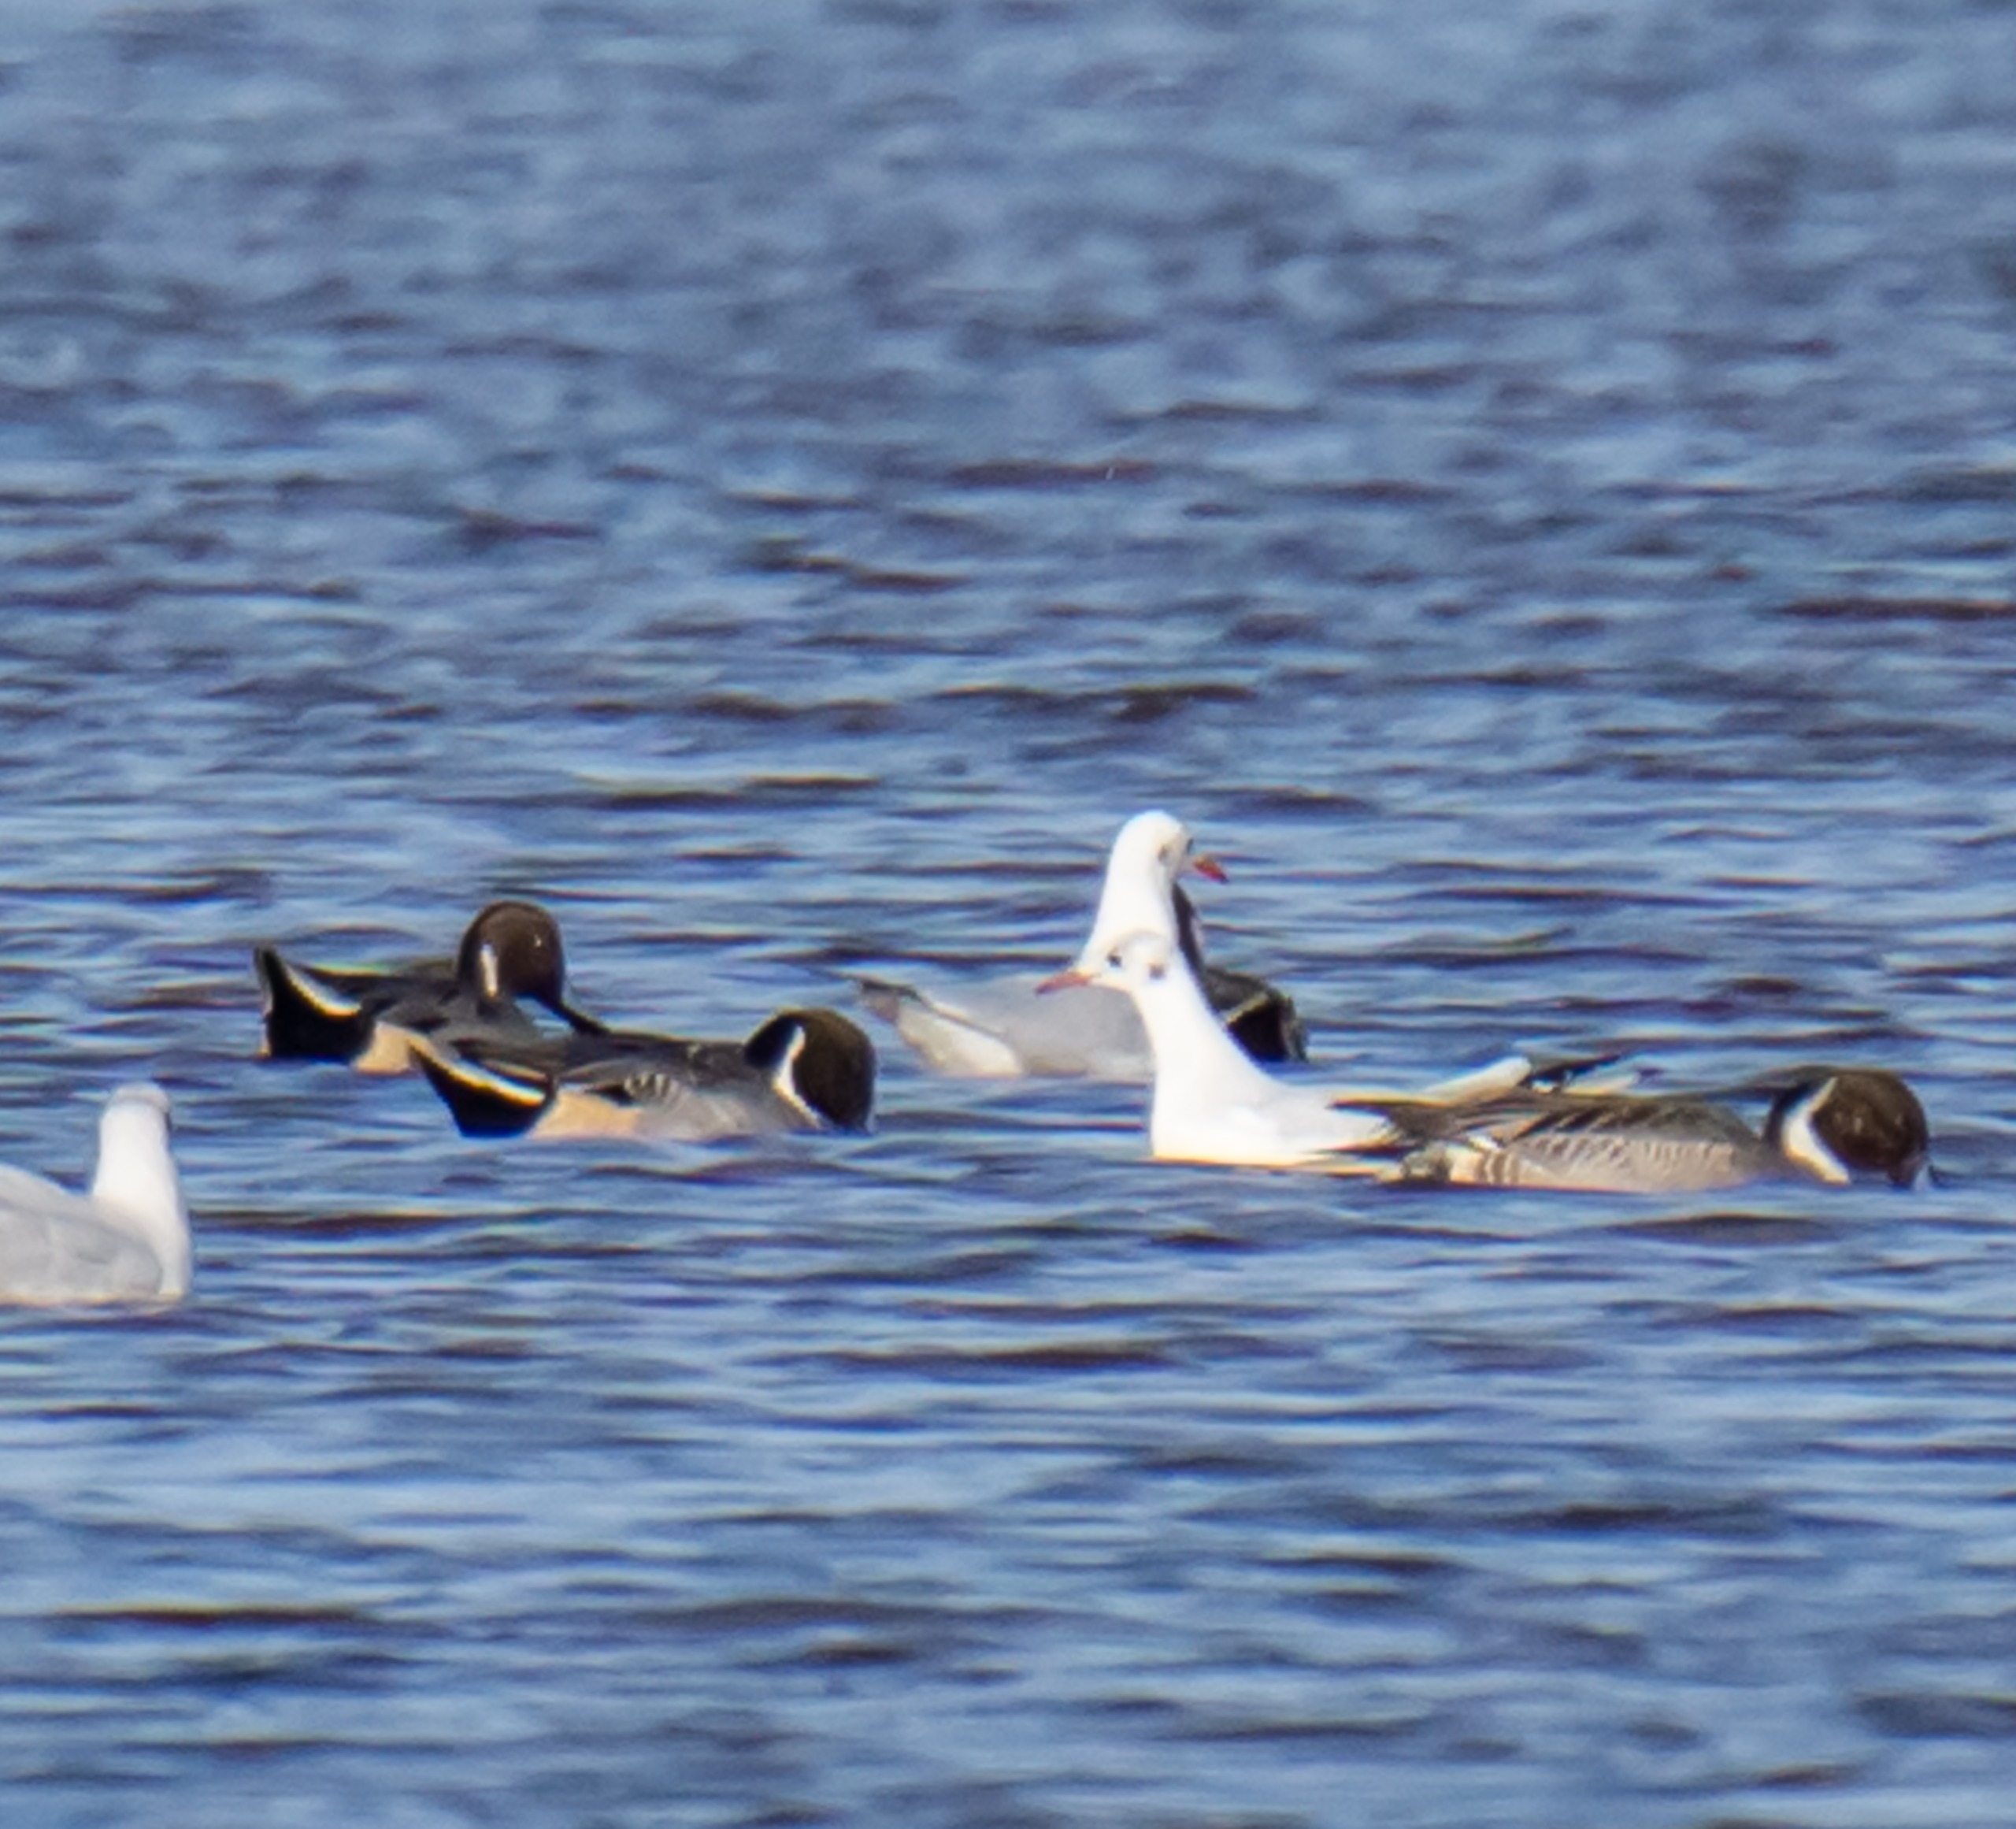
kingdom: Animalia
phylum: Chordata
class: Aves
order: Anseriformes
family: Anatidae
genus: Anas
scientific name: Anas acuta
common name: Spidsand
